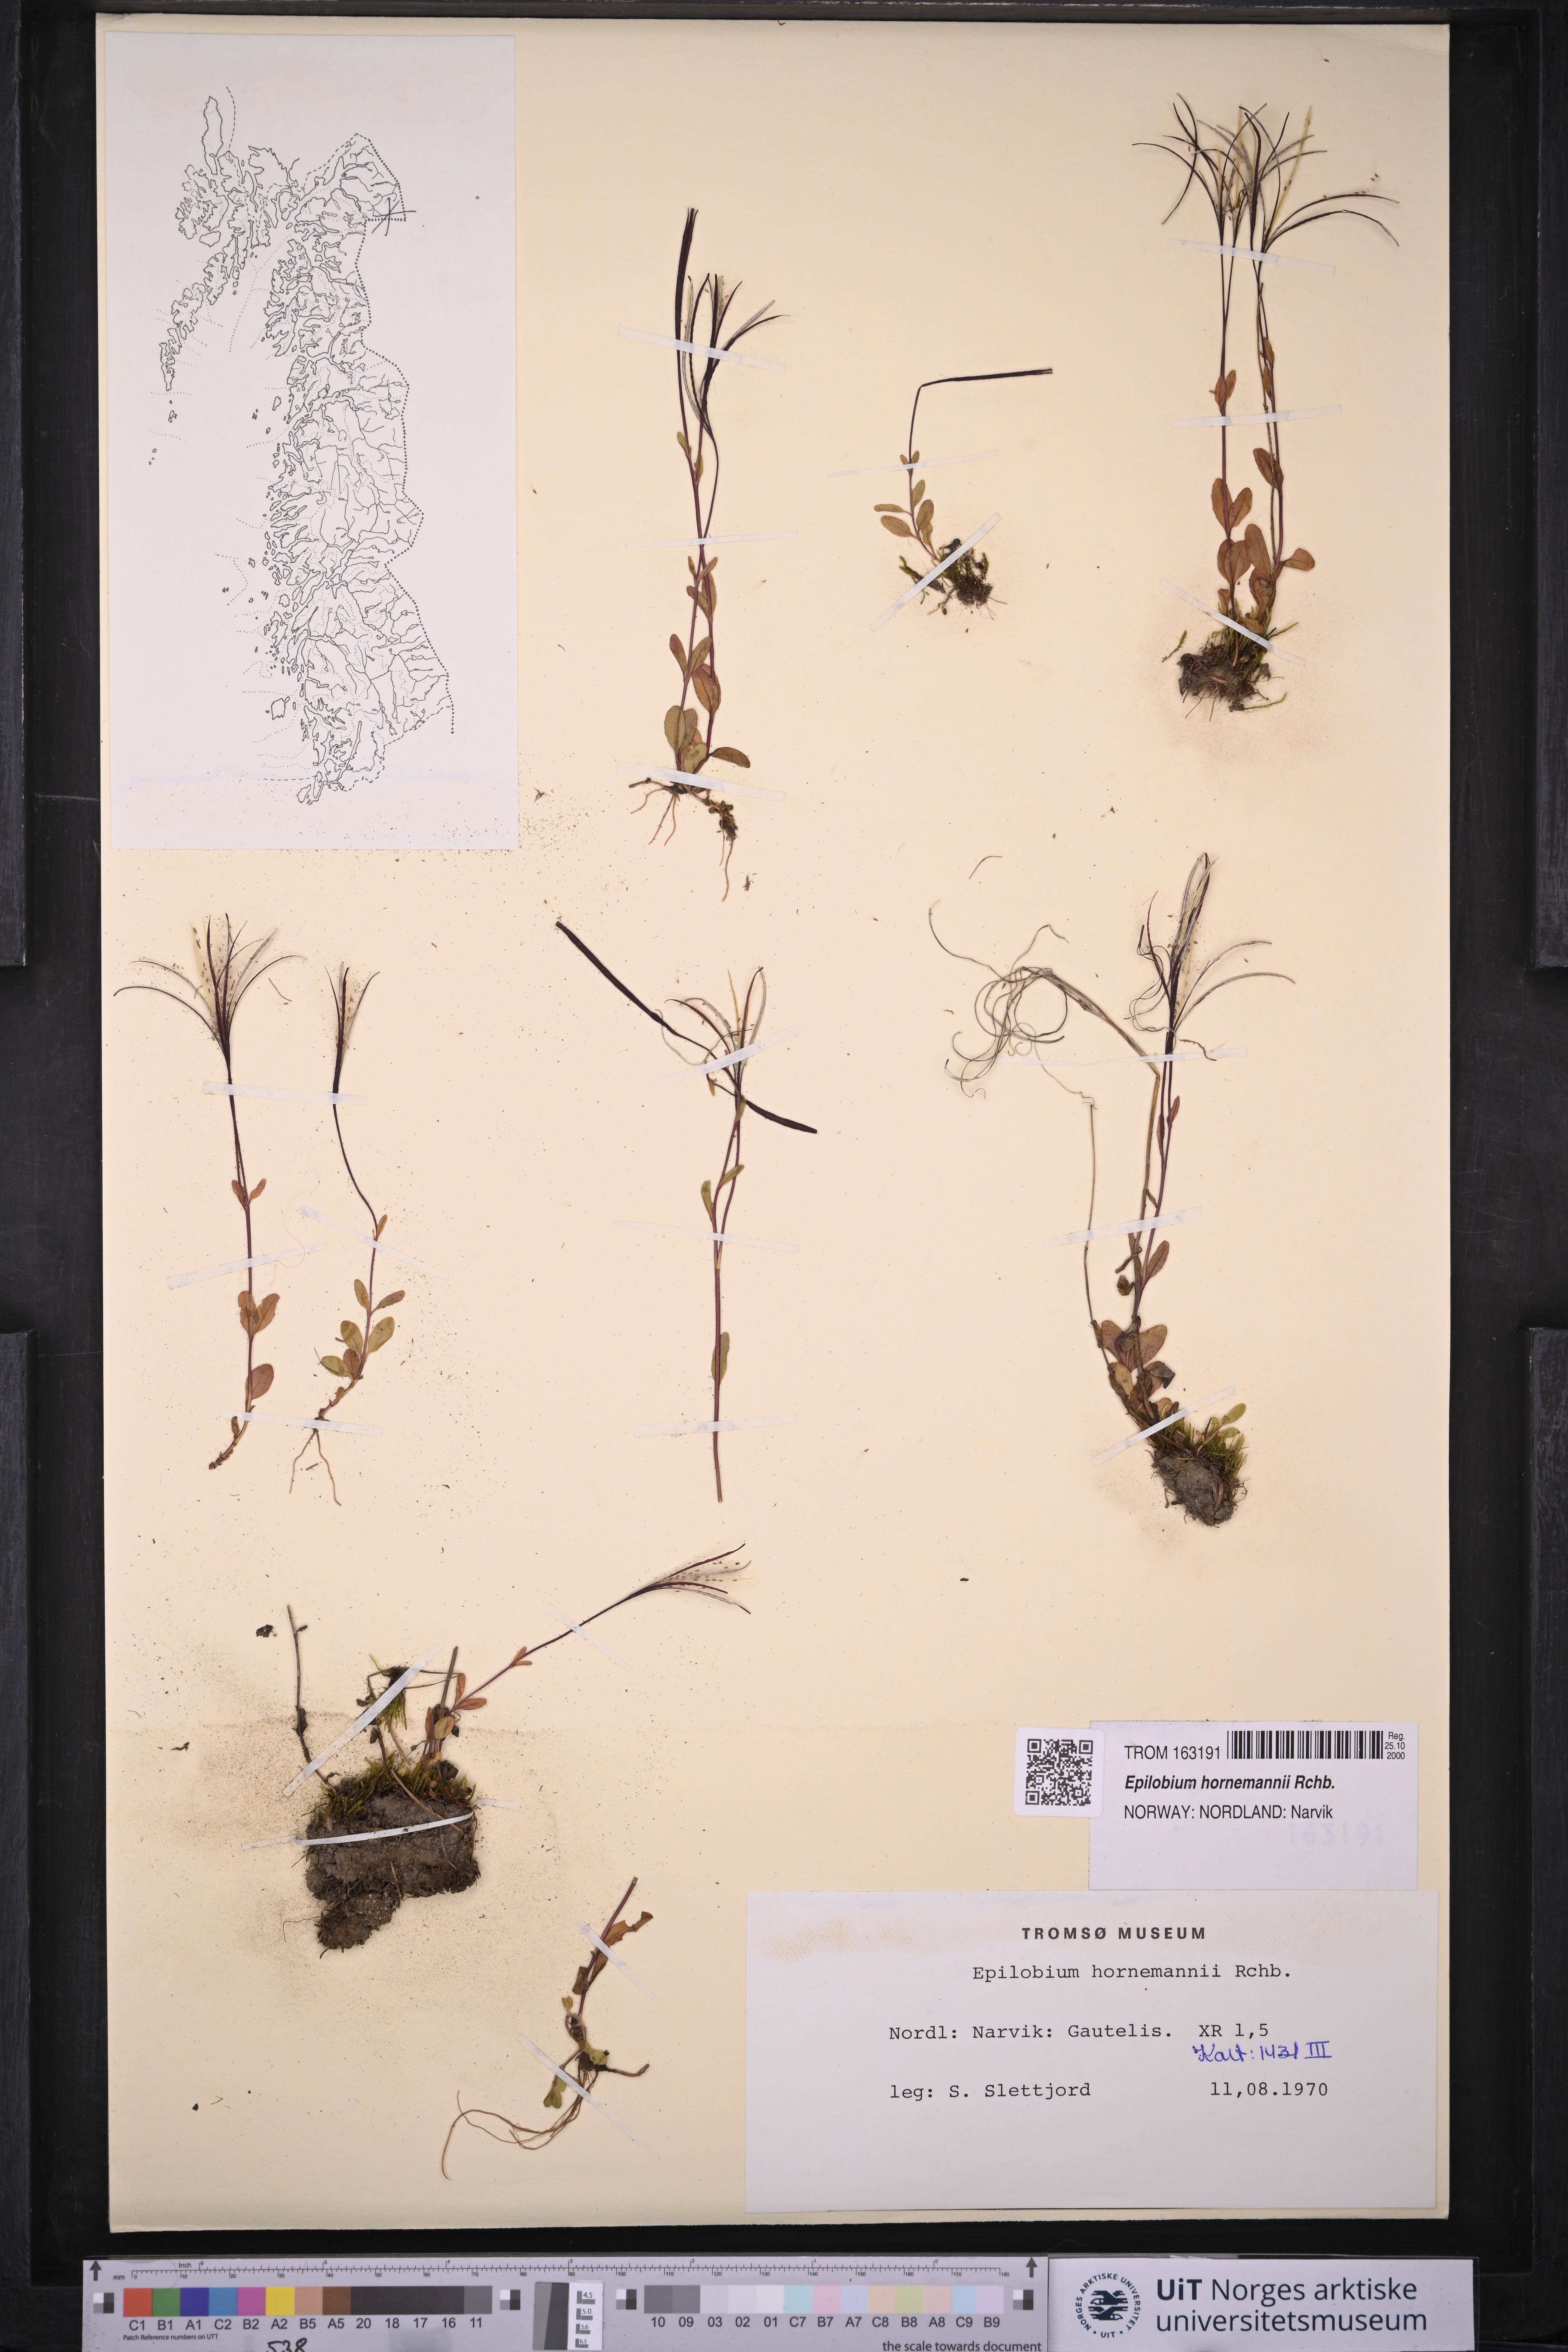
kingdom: Plantae
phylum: Tracheophyta
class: Magnoliopsida
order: Myrtales
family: Onagraceae
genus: Epilobium
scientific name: Epilobium hornemannii
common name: Hornemann's willowherb
